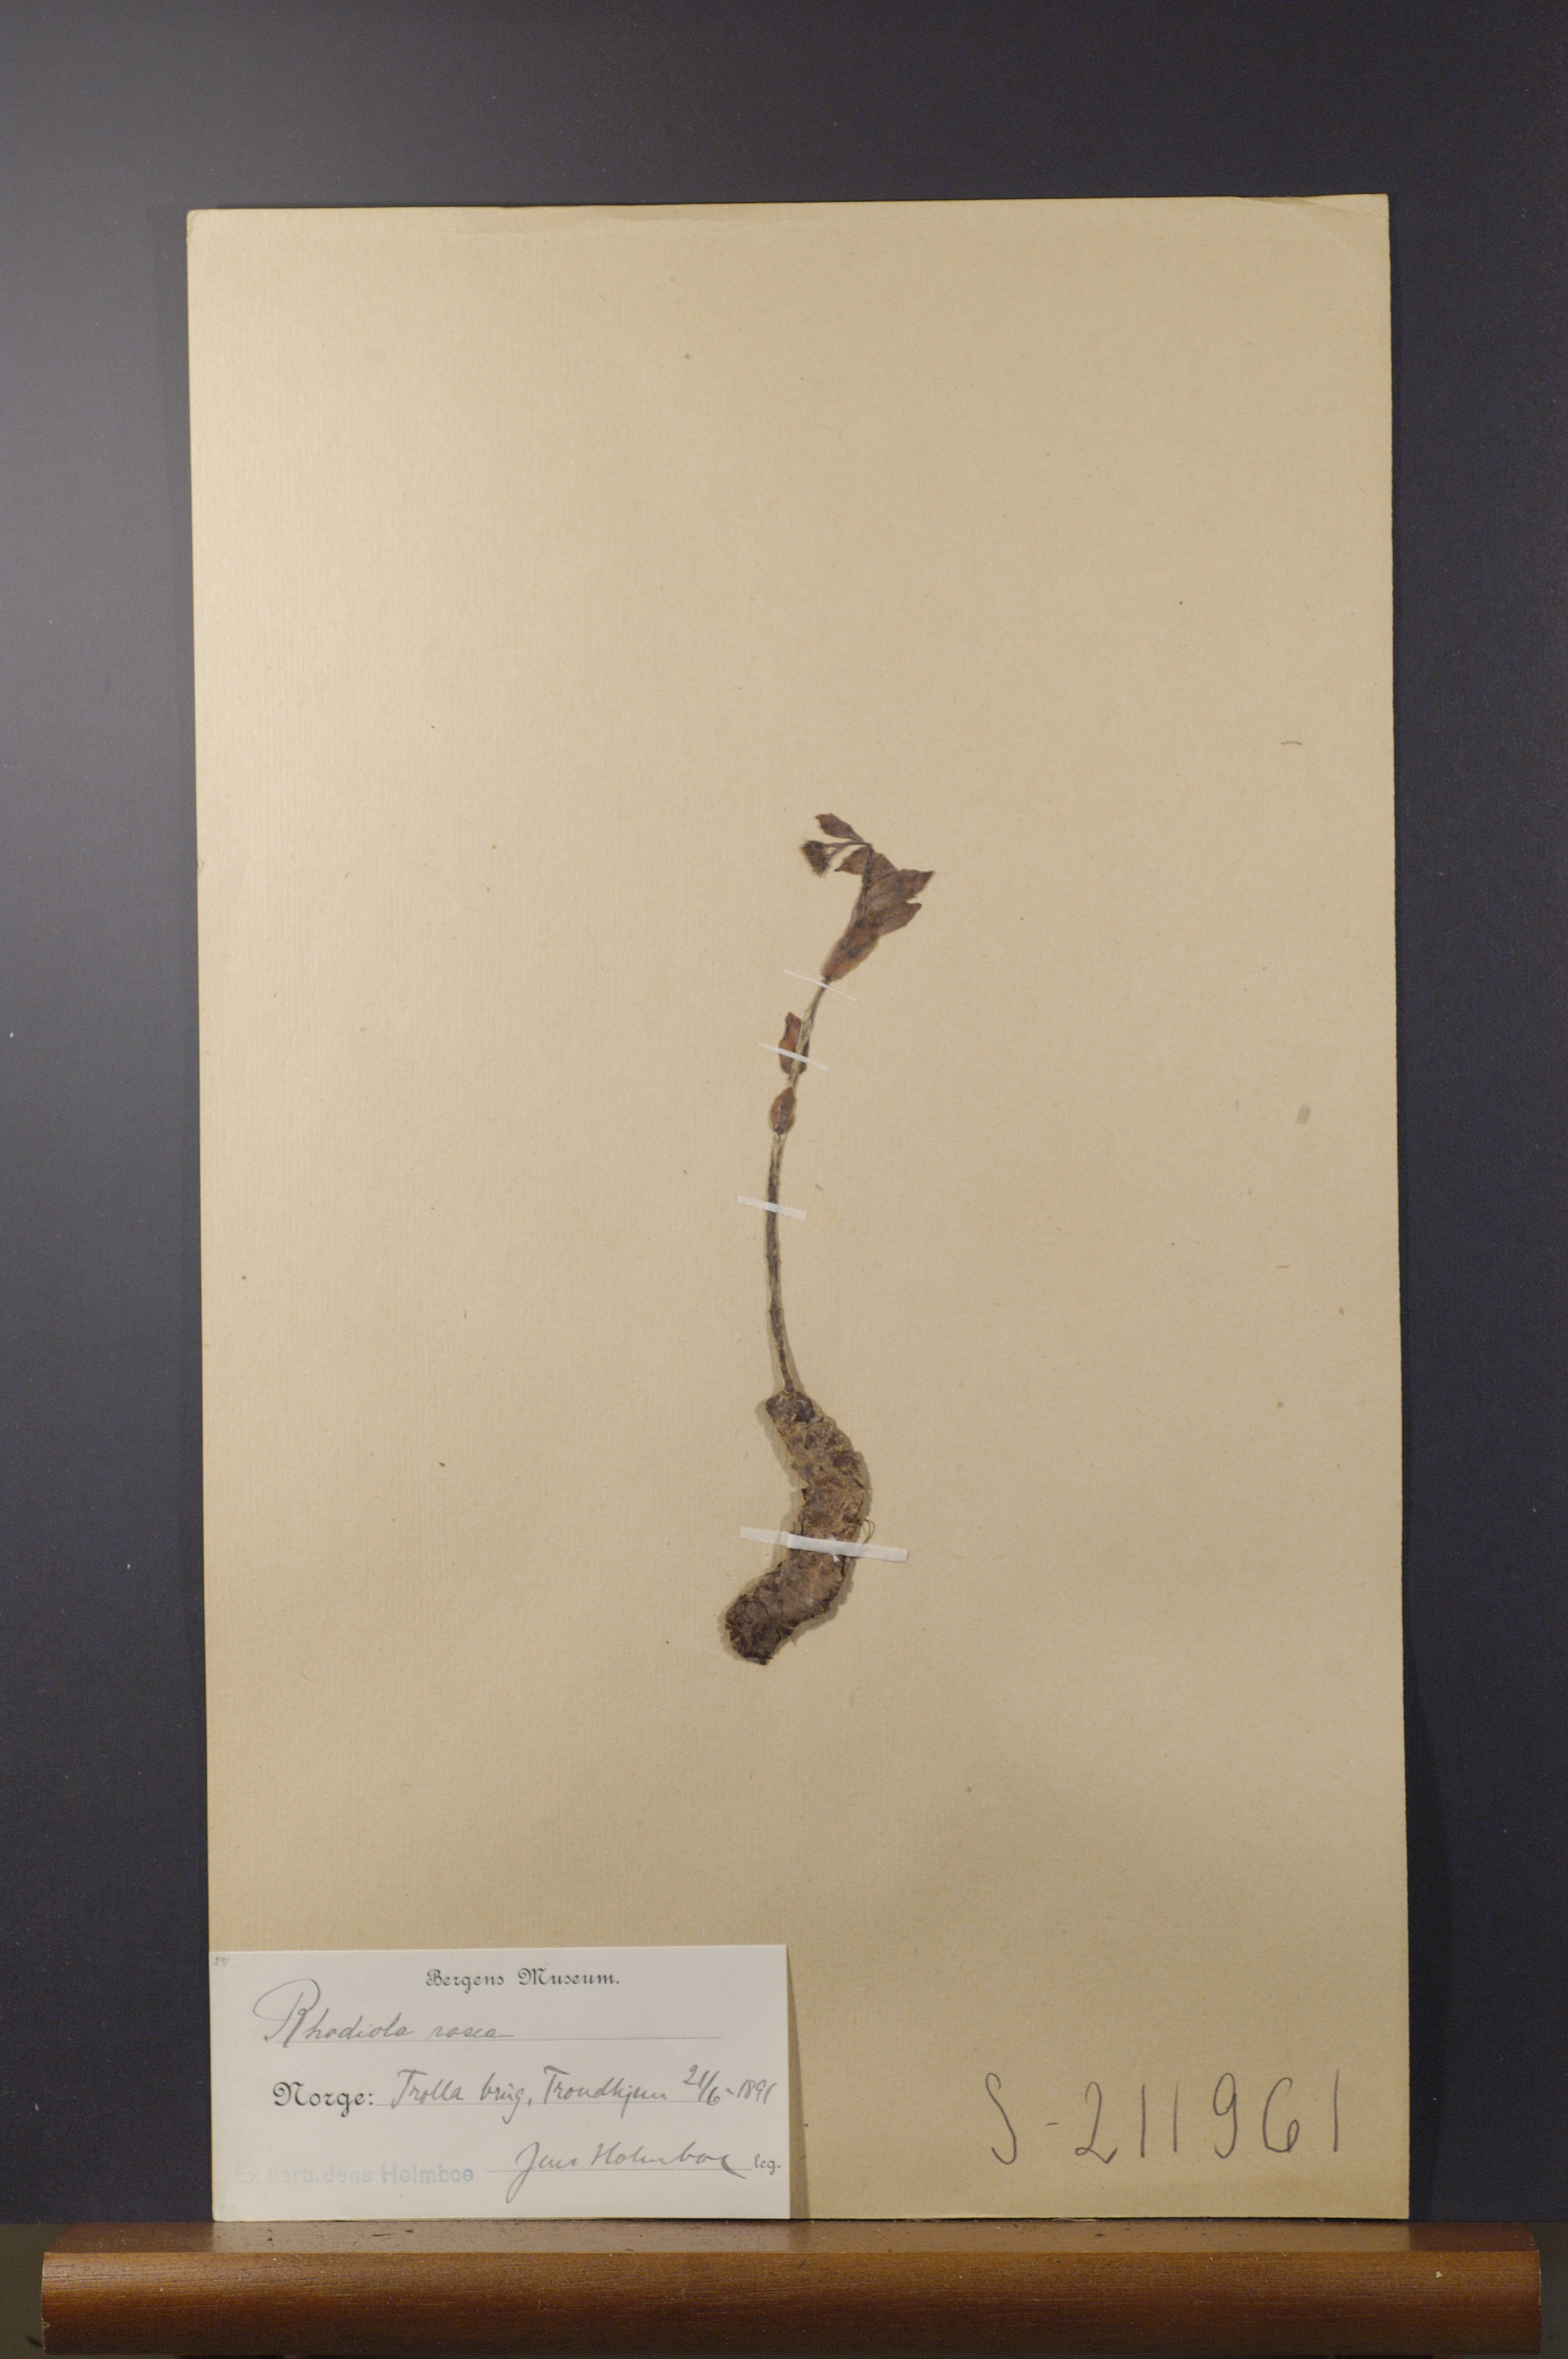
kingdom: Plantae
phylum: Tracheophyta
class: Magnoliopsida
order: Saxifragales
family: Crassulaceae
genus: Rhodiola
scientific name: Rhodiola rosea
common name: Roseroot
